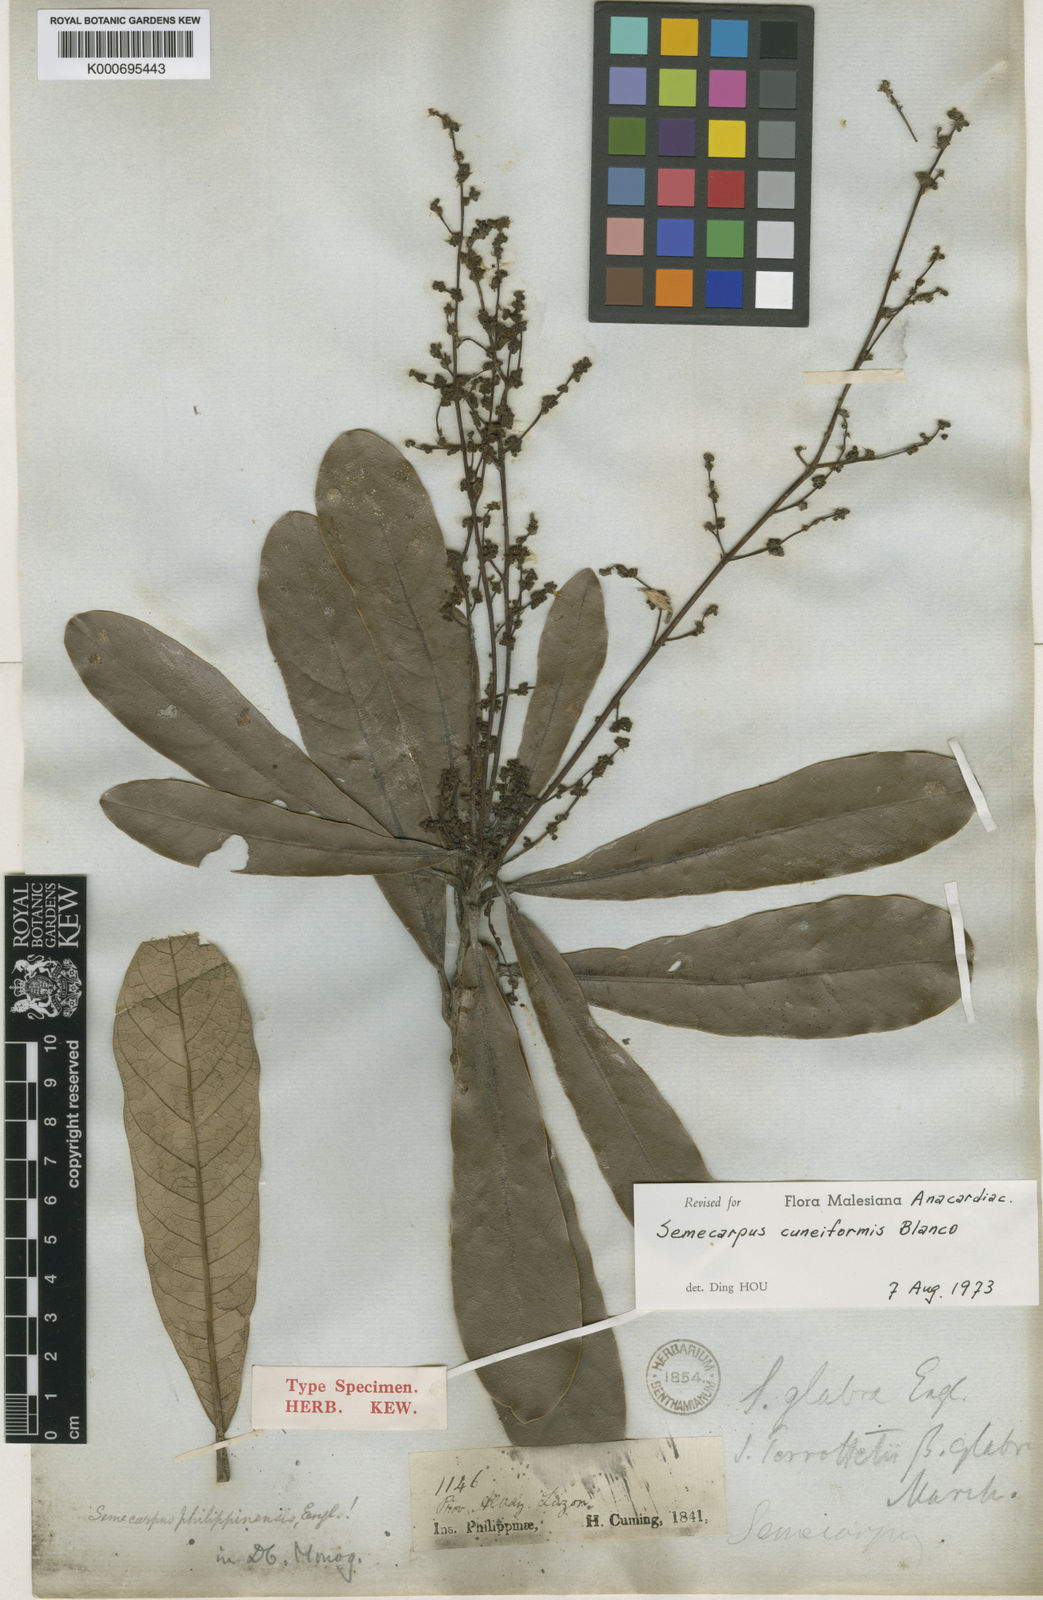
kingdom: Plantae
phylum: Tracheophyta
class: Magnoliopsida
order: Sapindales
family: Anacardiaceae
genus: Semecarpus
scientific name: Semecarpus cuneiformis
